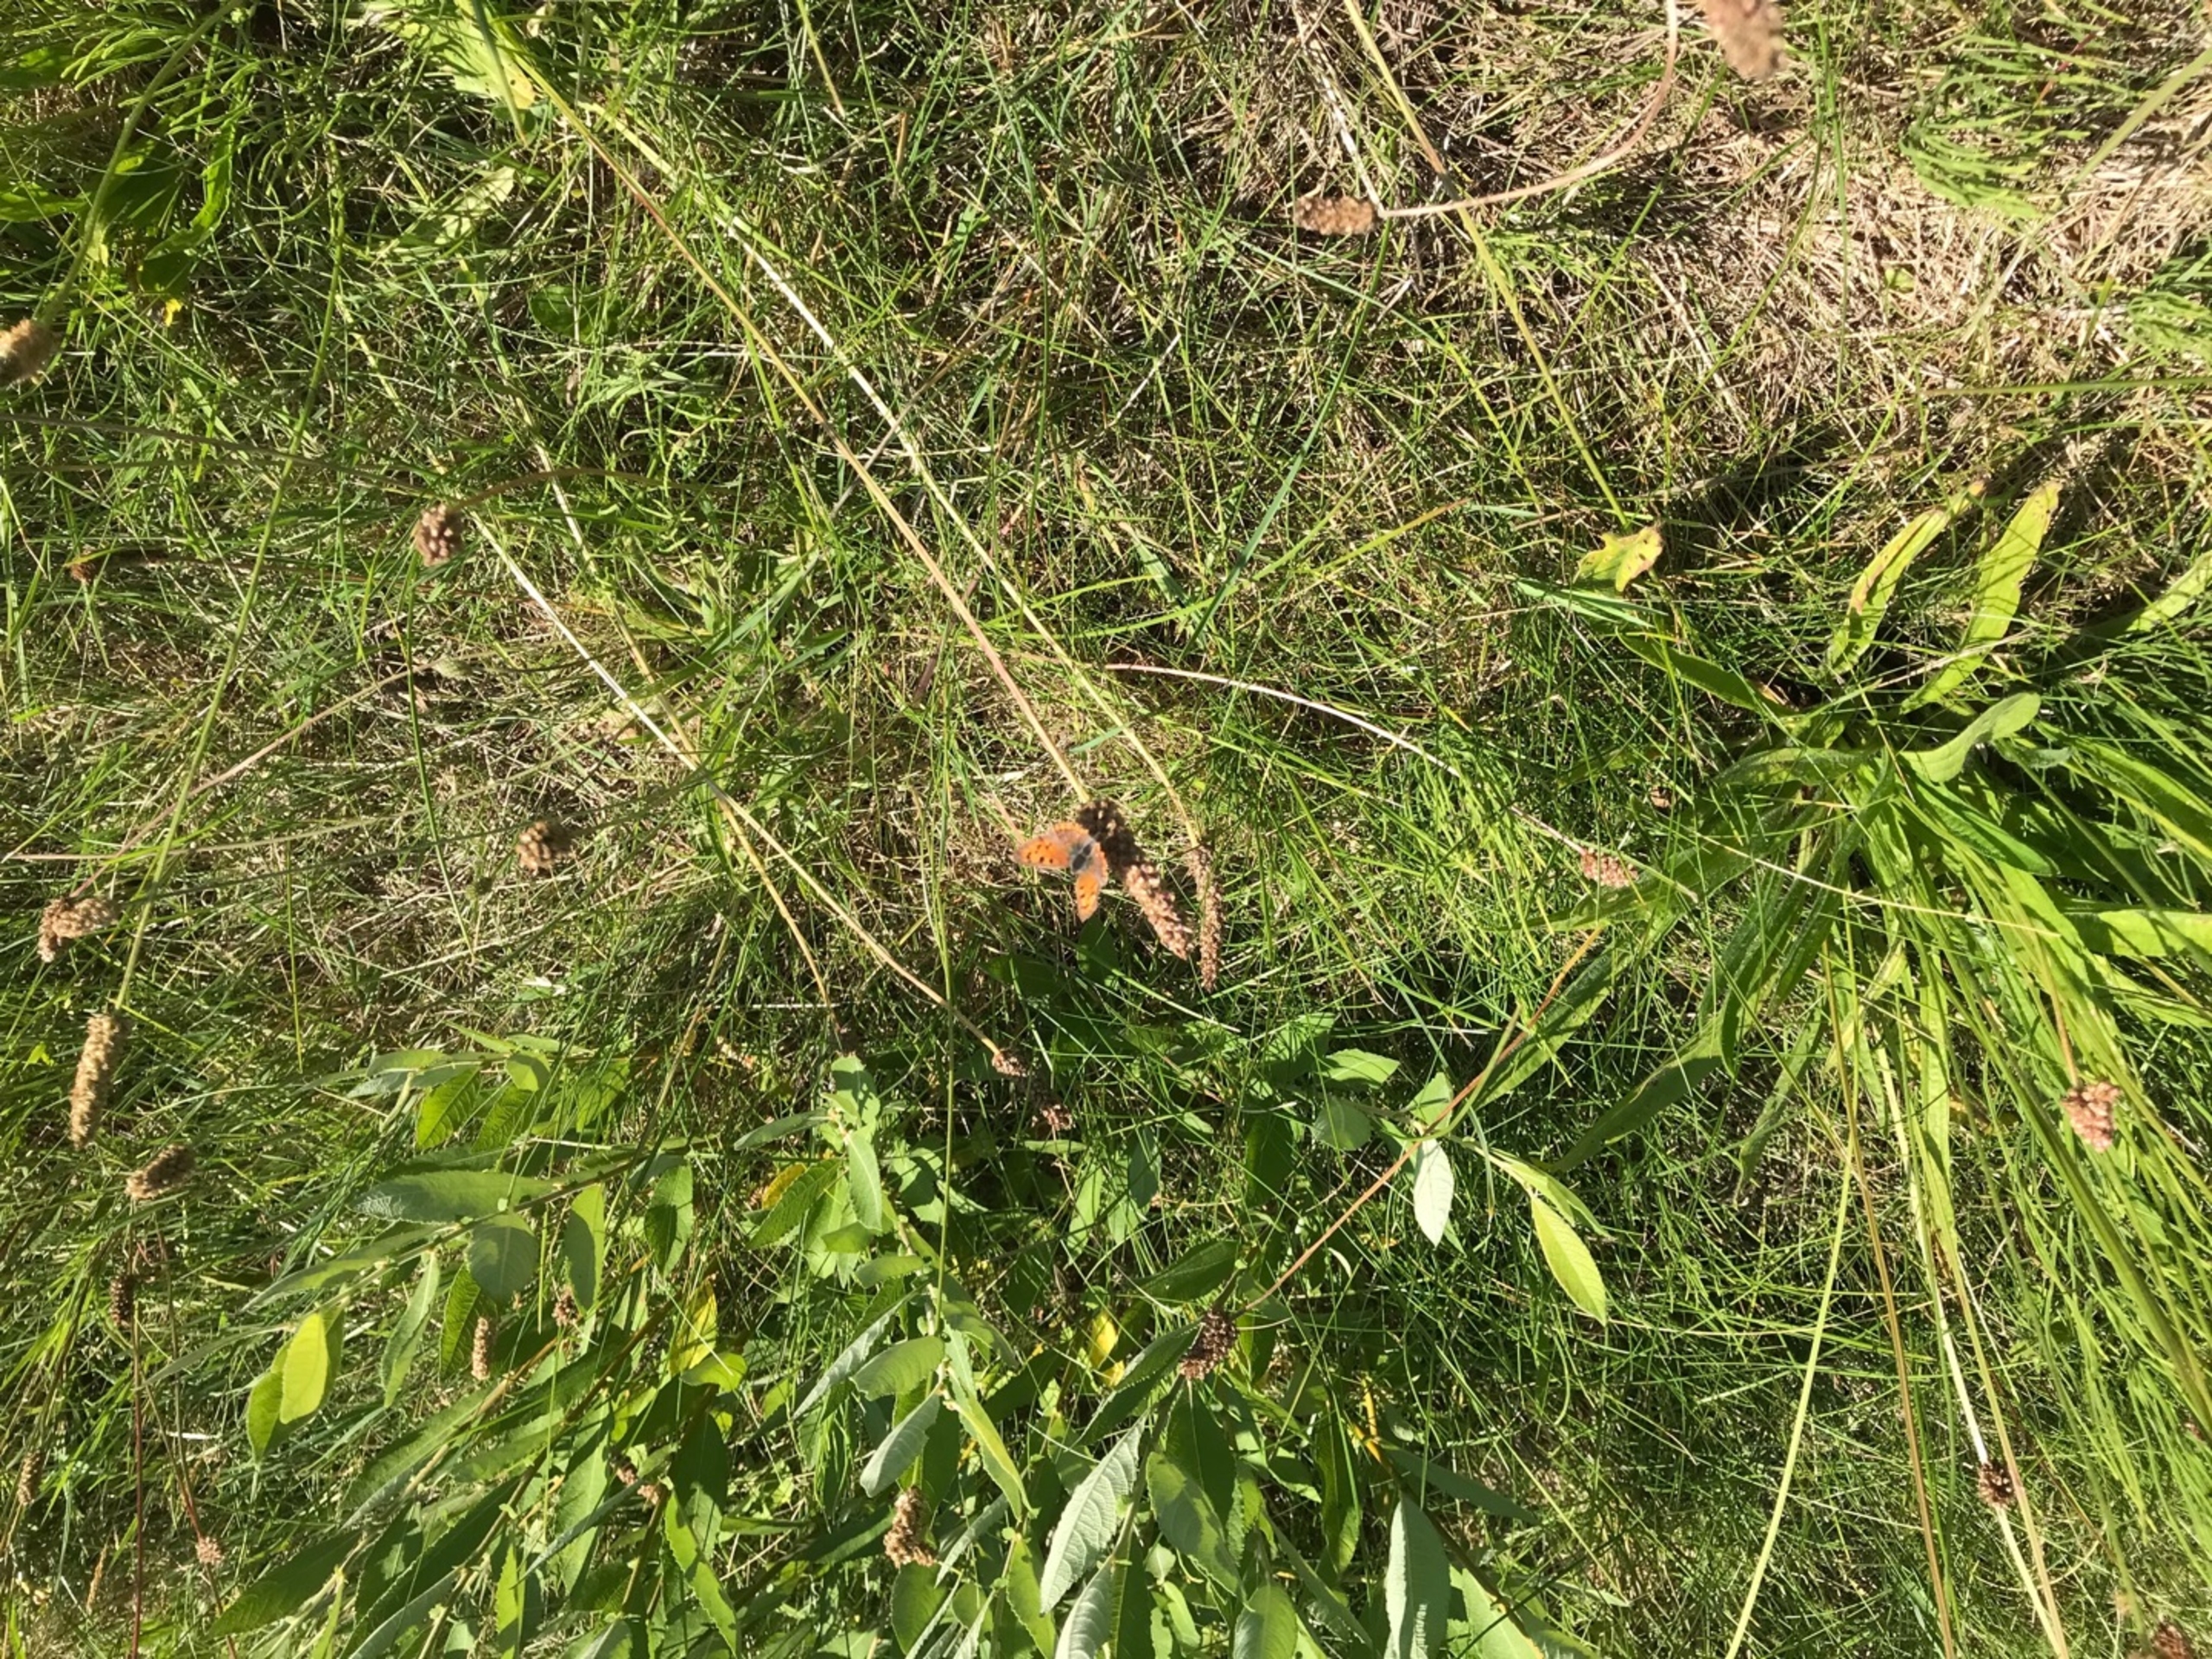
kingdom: Animalia
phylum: Arthropoda
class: Insecta
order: Lepidoptera
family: Lycaenidae
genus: Lycaena
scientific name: Lycaena phlaeas
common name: Lille ildfugl
